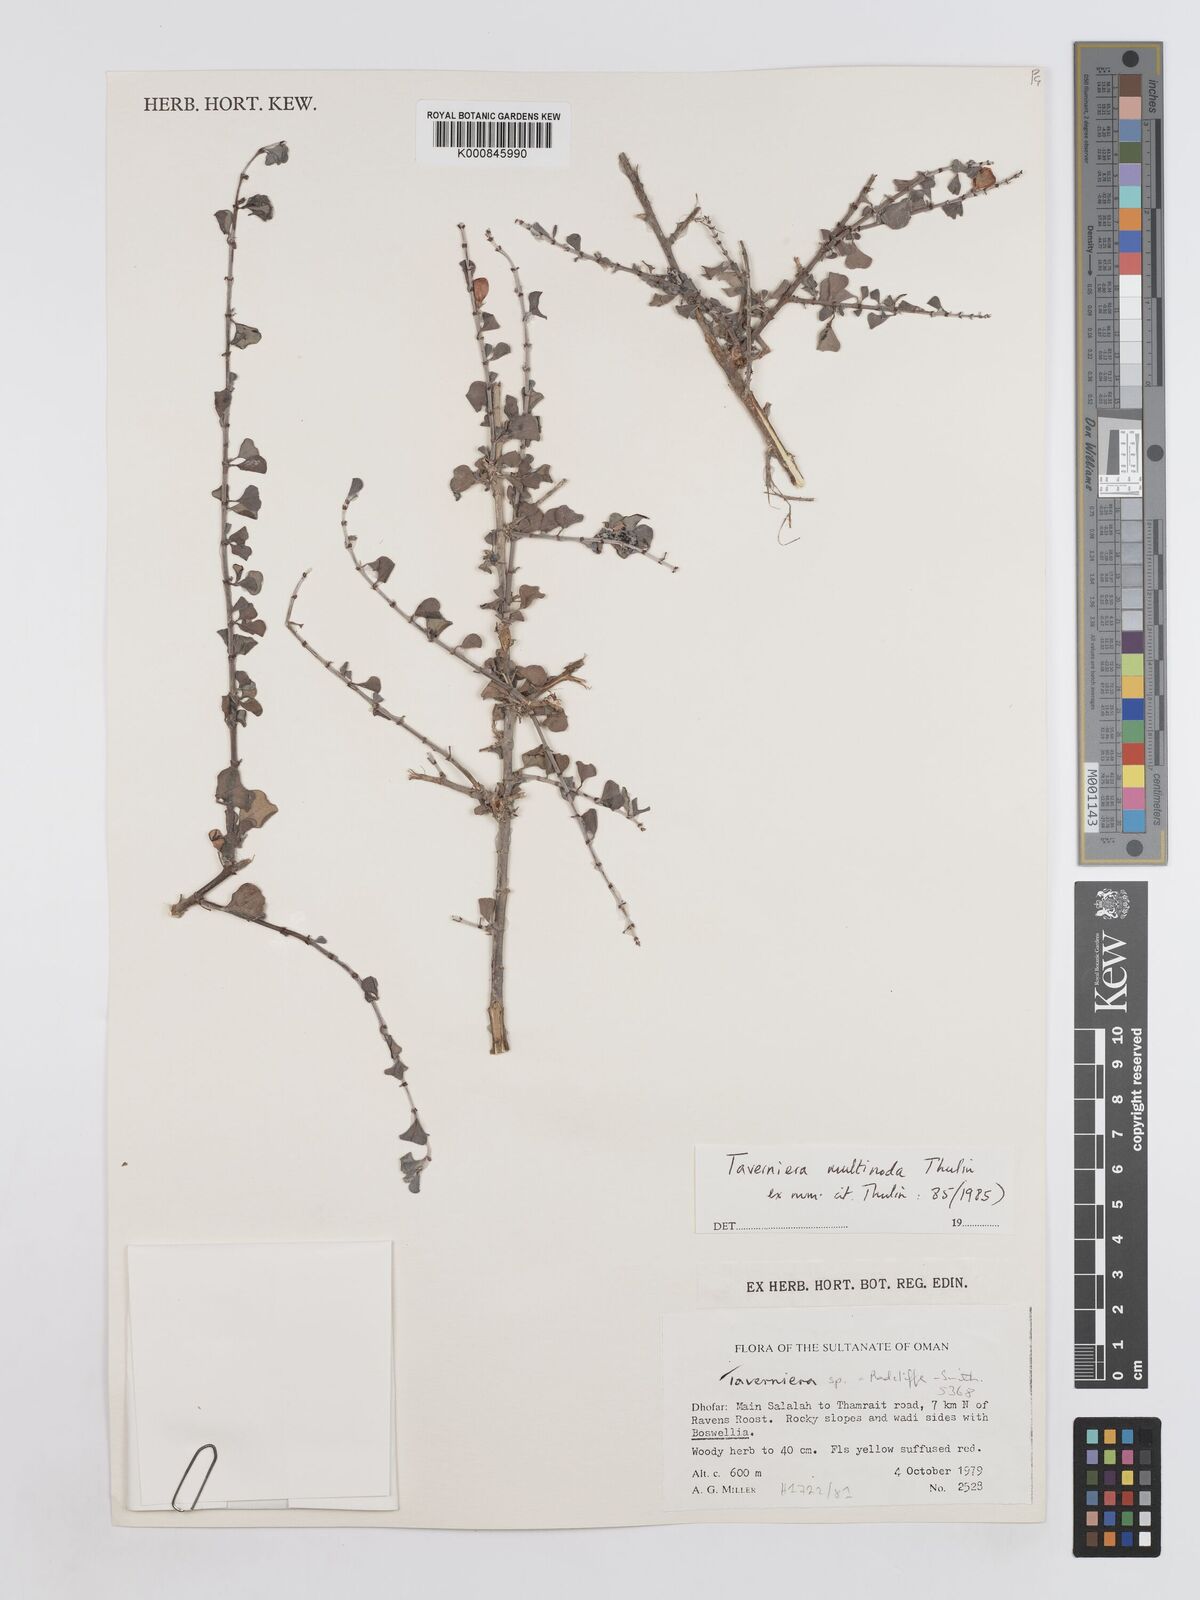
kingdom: Plantae
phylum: Tracheophyta
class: Magnoliopsida
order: Fabales
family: Fabaceae
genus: Taverniera
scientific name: Taverniera multinoda
